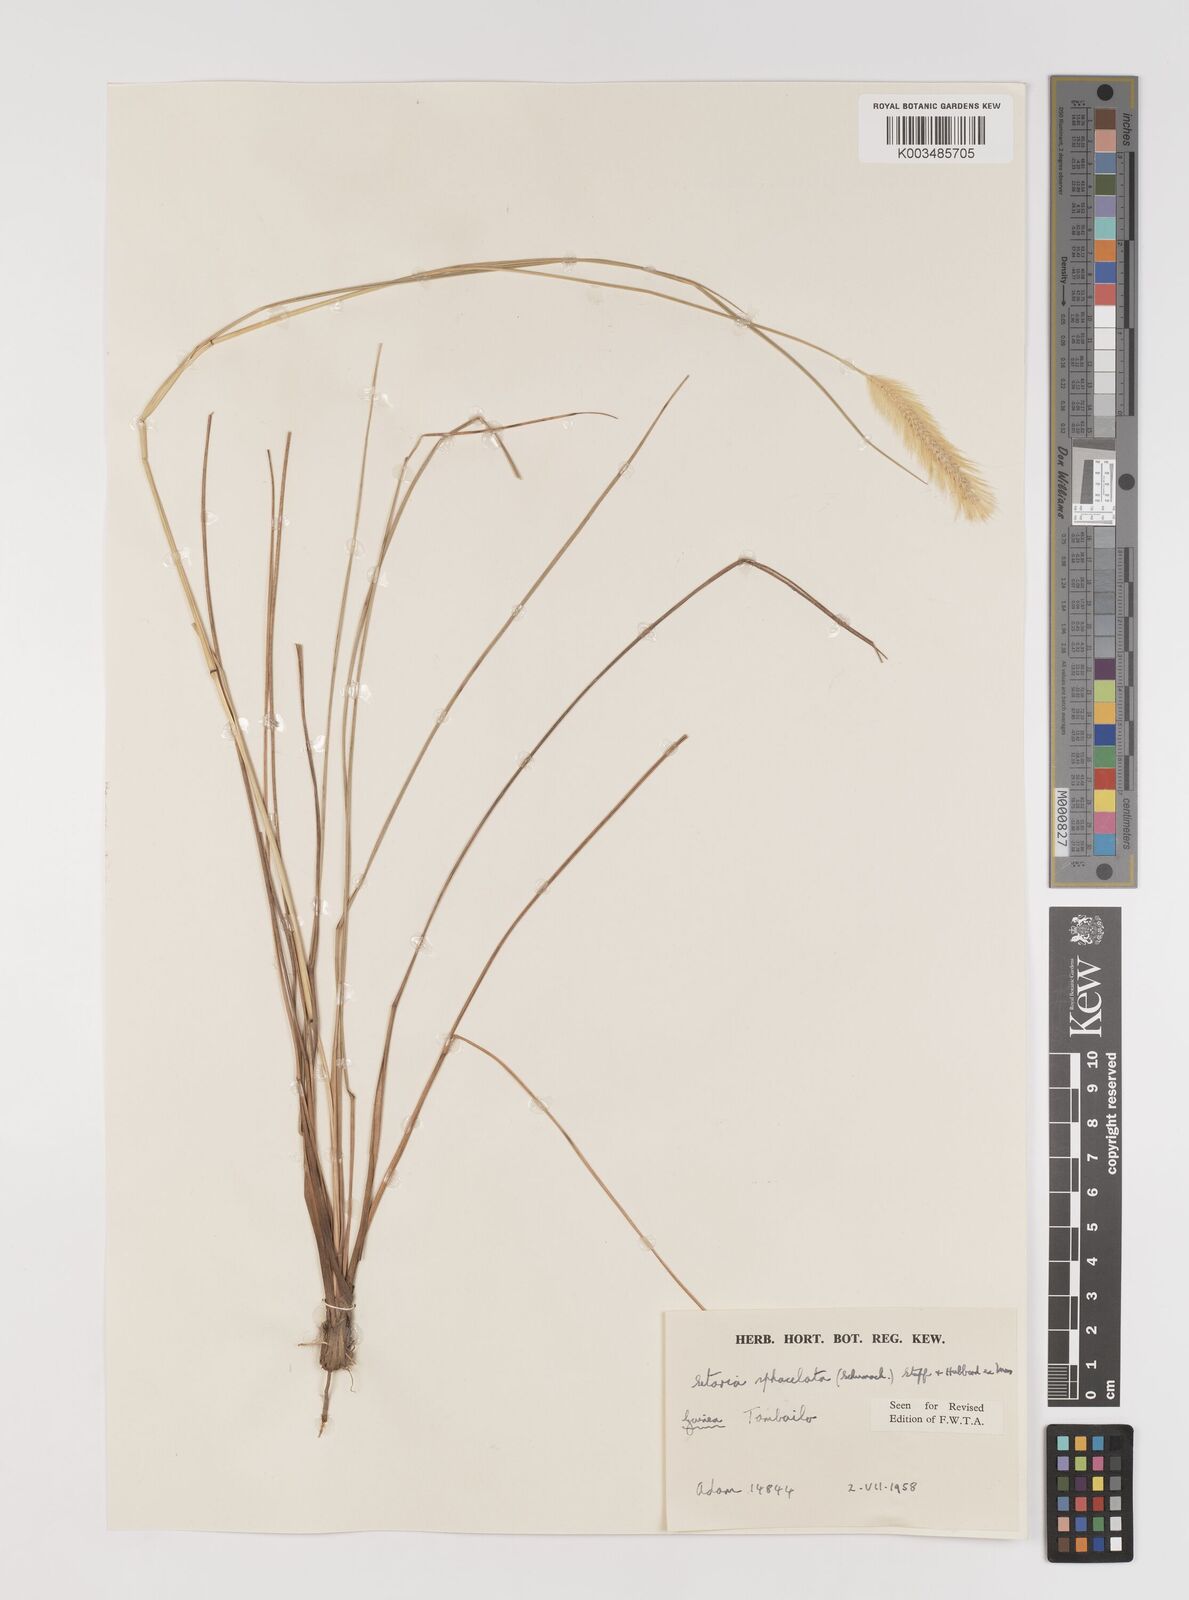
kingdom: Plantae
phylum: Tracheophyta
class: Liliopsida
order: Poales
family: Poaceae
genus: Setaria
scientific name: Setaria sphacelata
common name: African bristlegrass
